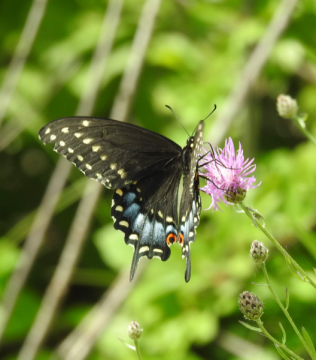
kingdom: Animalia
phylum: Arthropoda
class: Insecta
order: Lepidoptera
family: Papilionidae
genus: Papilio
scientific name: Papilio polyxenes
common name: Black Swallowtail
